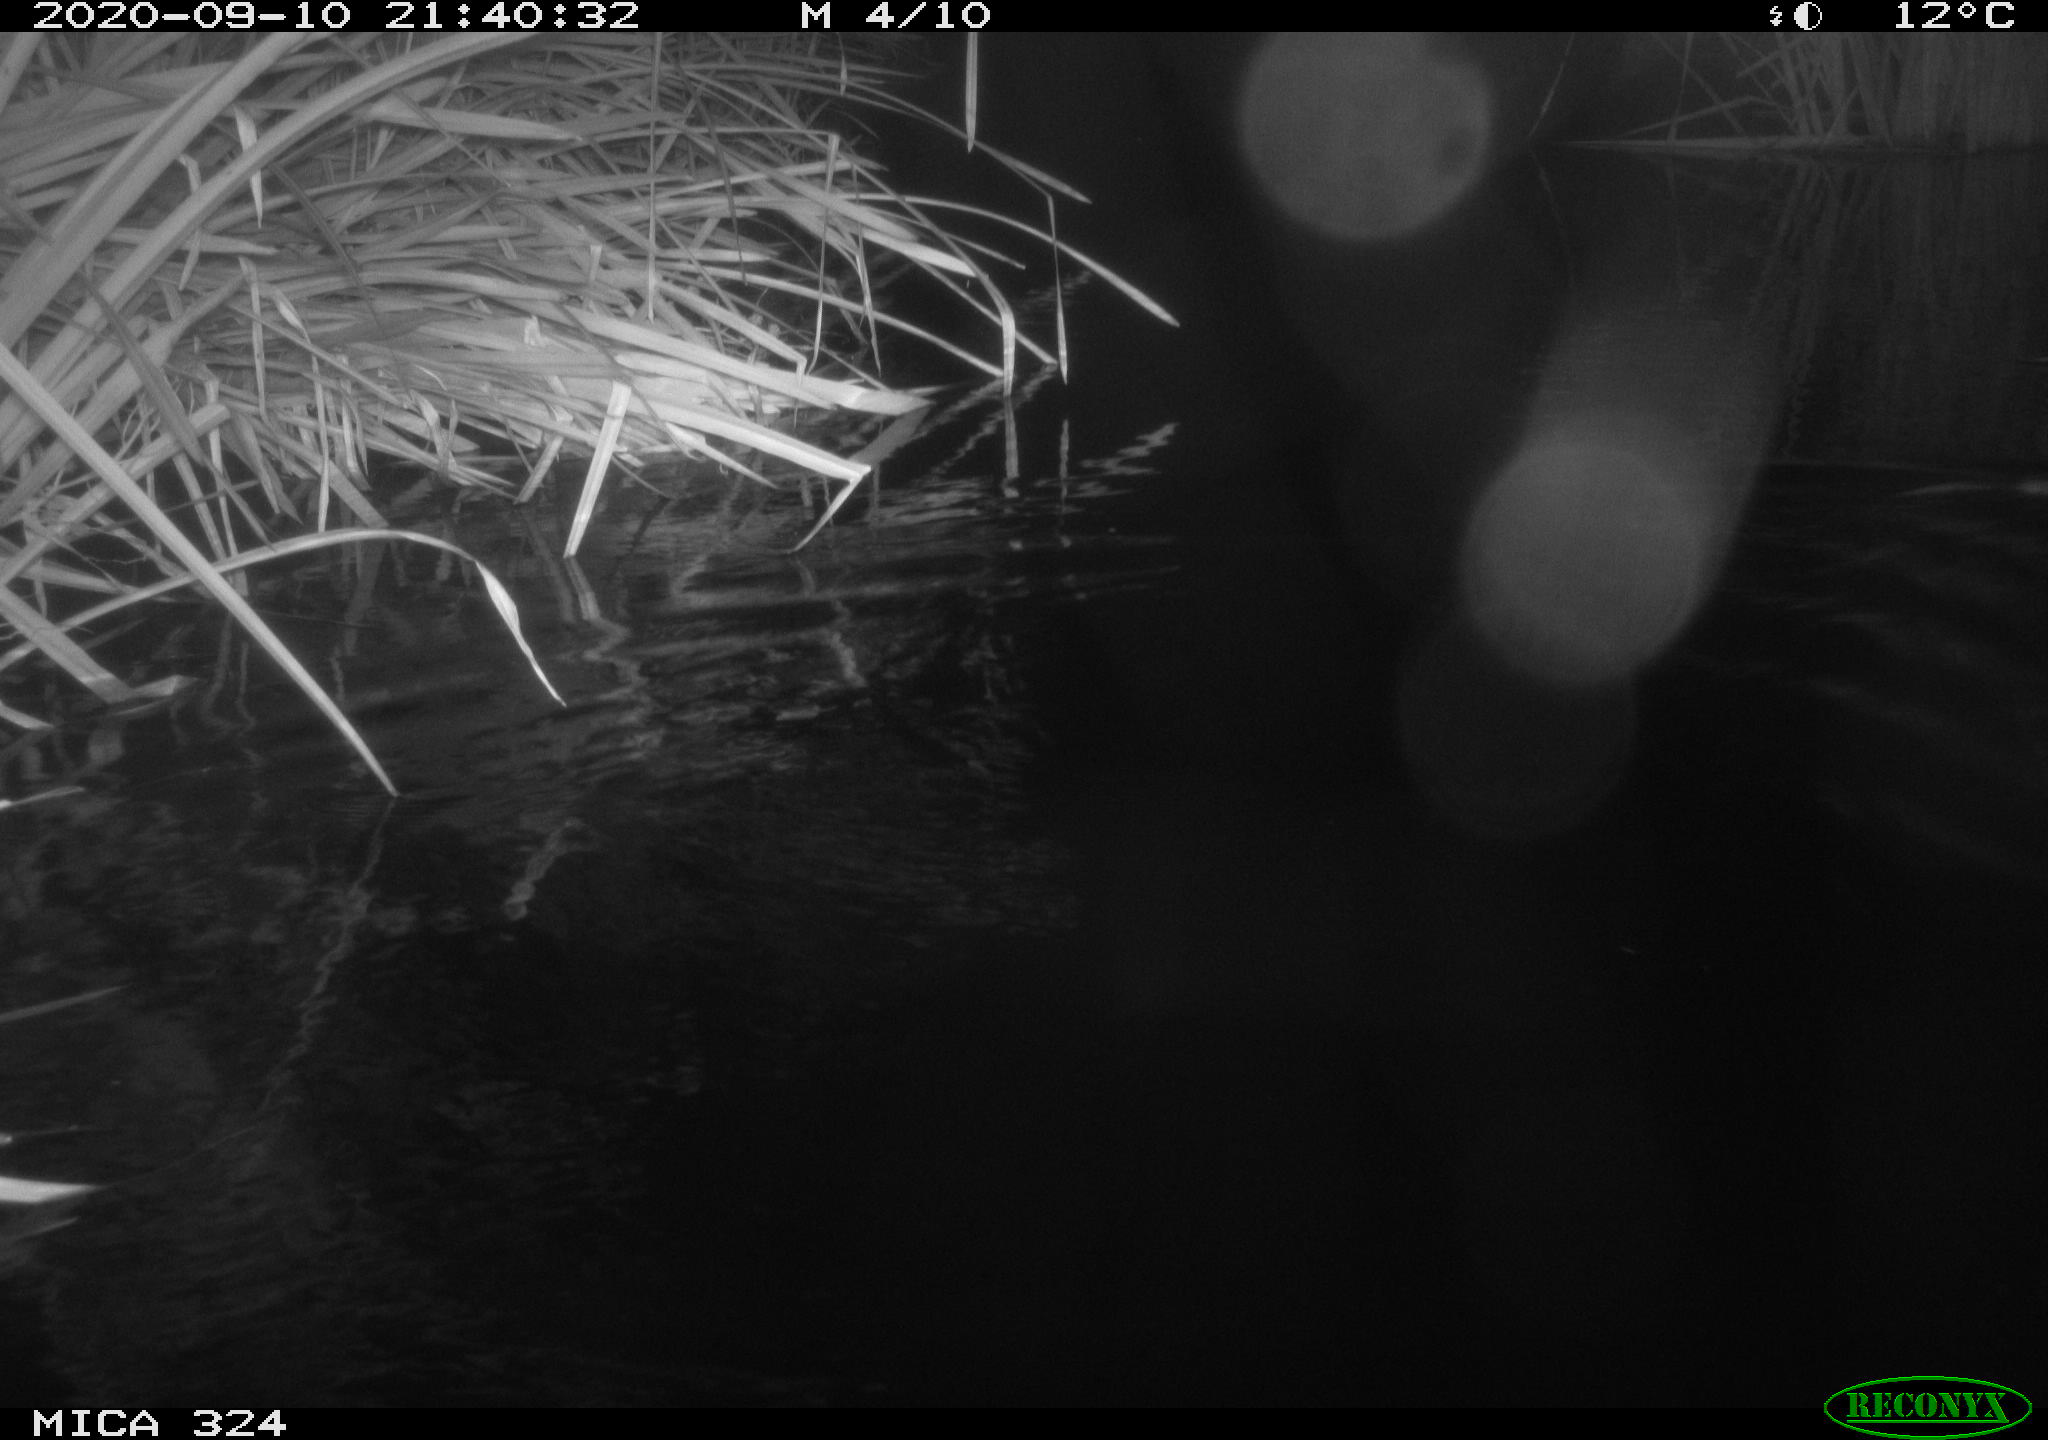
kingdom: Animalia
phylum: Chordata
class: Mammalia
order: Rodentia
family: Cricetidae
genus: Ondatra
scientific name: Ondatra zibethicus
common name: Muskrat
